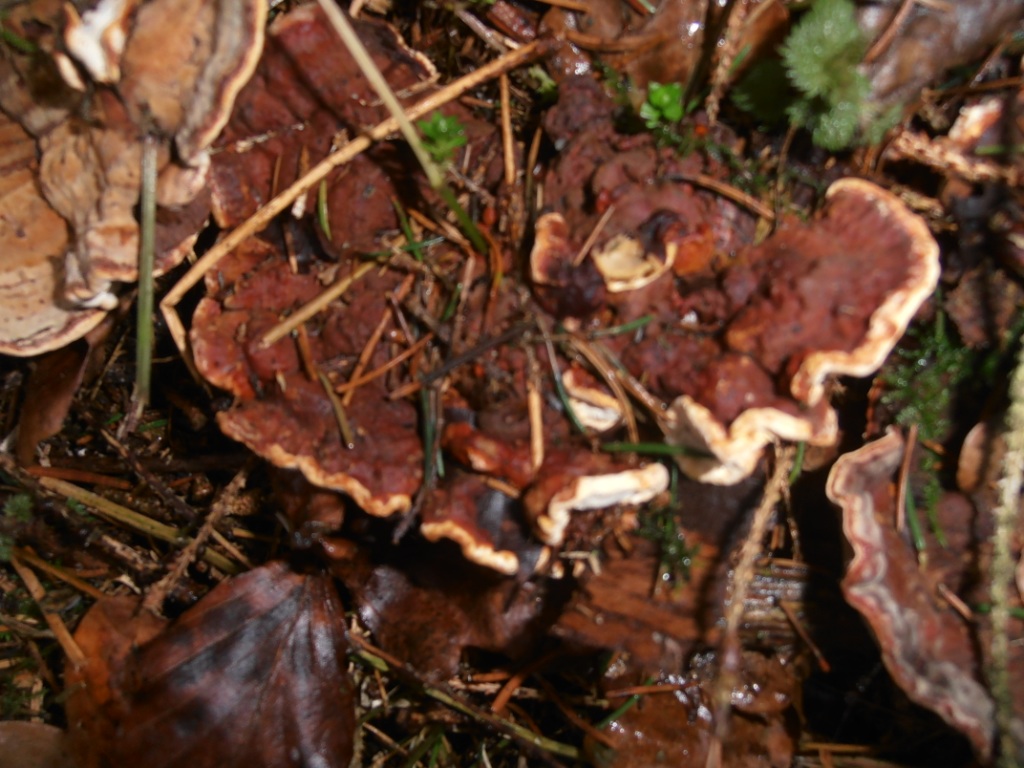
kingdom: Fungi
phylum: Basidiomycota
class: Agaricomycetes
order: Russulales
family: Bondarzewiaceae
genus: Heterobasidion
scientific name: Heterobasidion annosum
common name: almindelig rodfordærver
